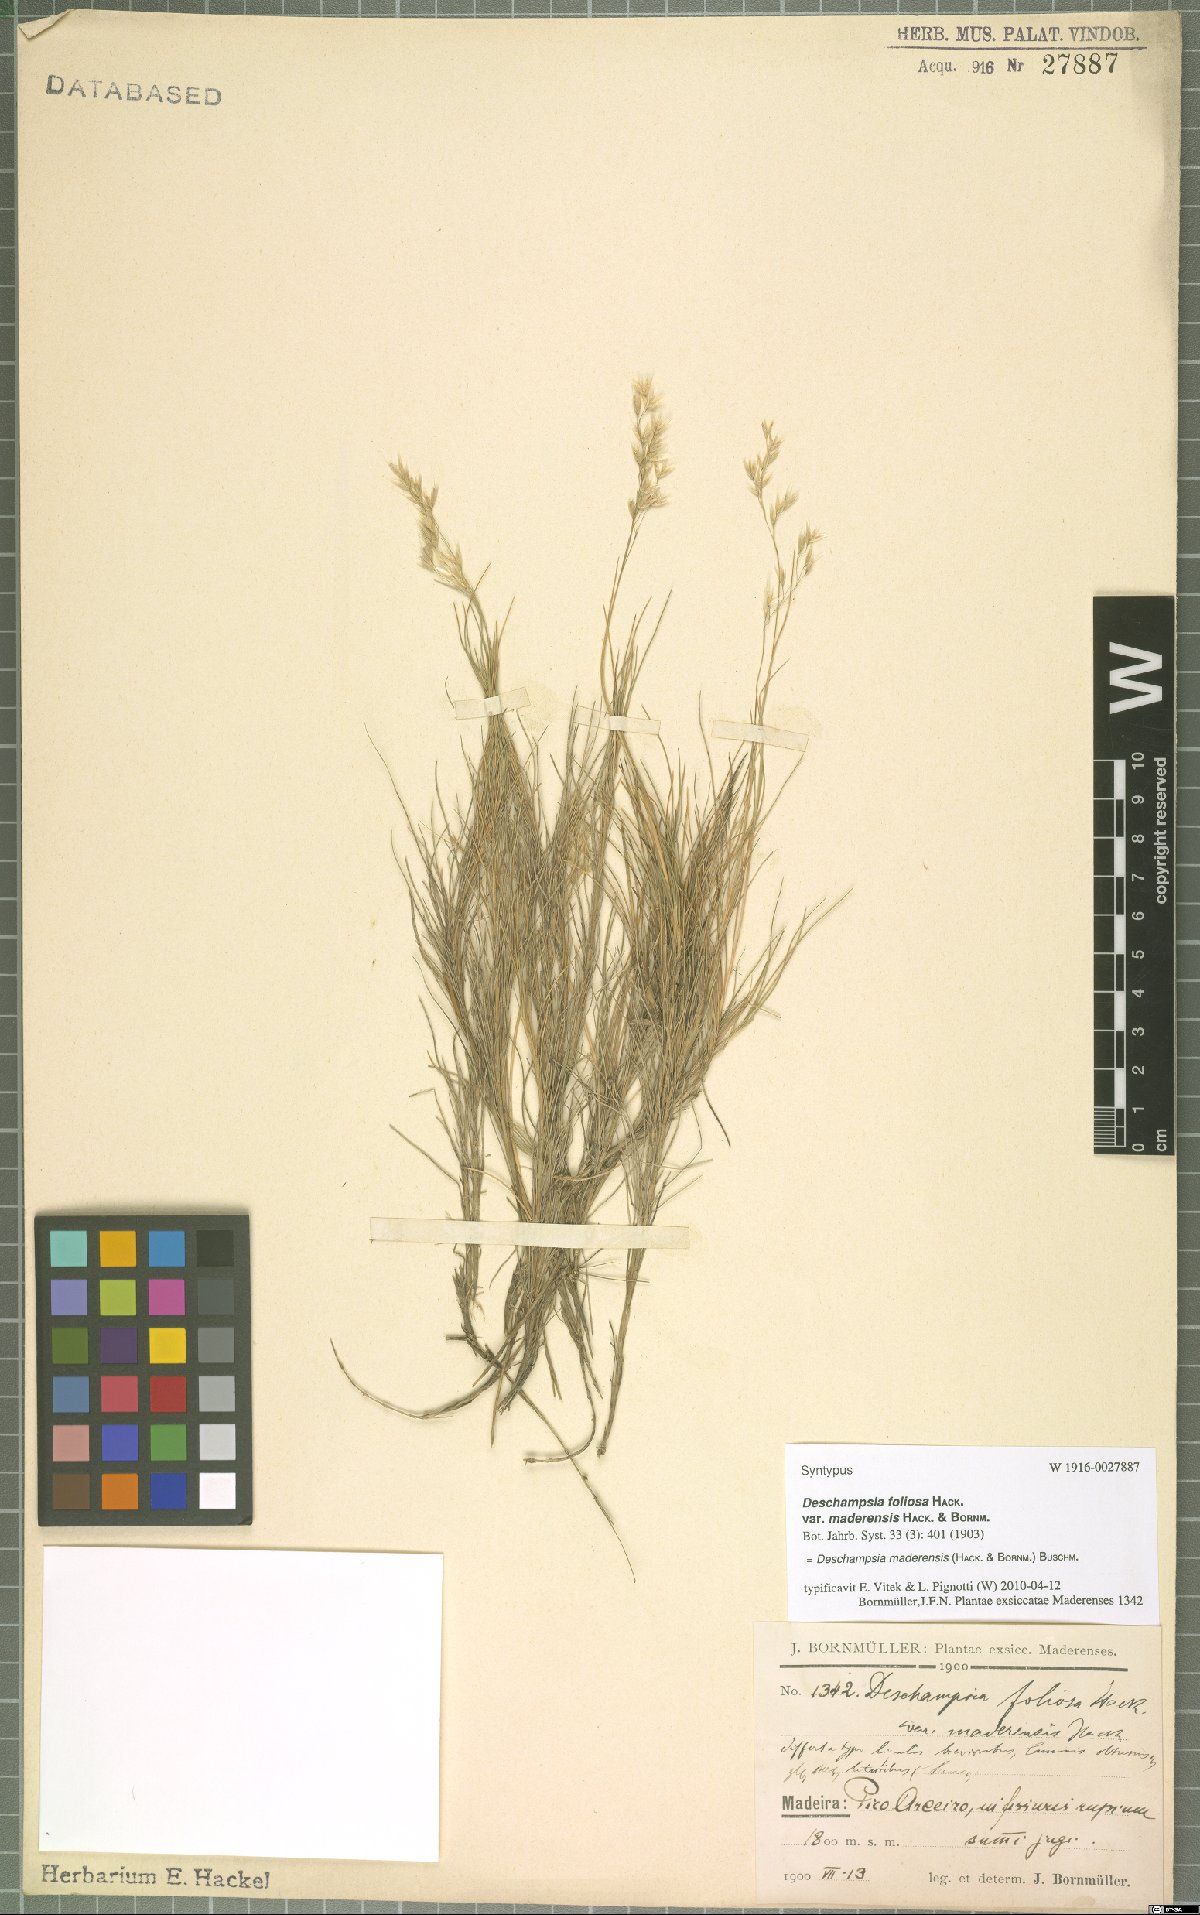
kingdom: Plantae
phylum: Tracheophyta
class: Liliopsida
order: Poales
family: Poaceae
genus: Avenella
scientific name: Avenella flexuosa
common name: Wavy hairgrass
